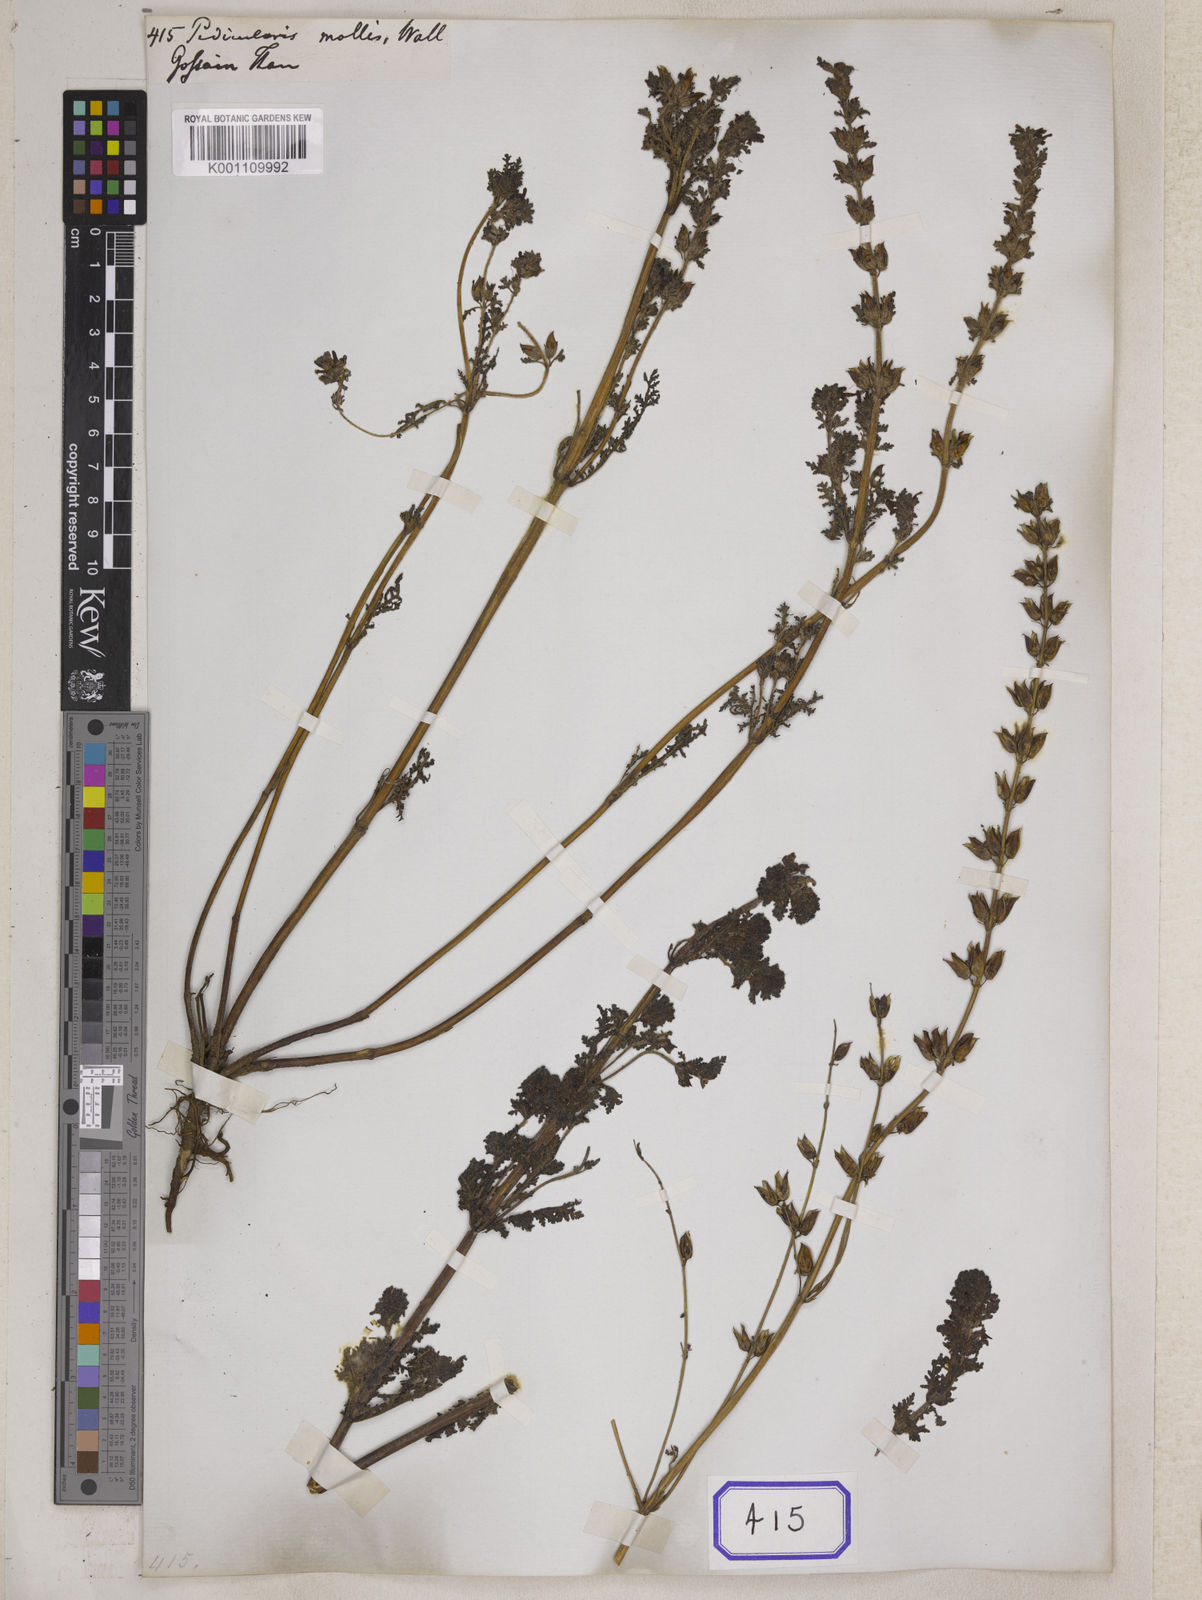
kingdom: Plantae
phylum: Tracheophyta
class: Magnoliopsida
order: Lamiales
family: Orobanchaceae
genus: Pedicularis
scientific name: Pedicularis
